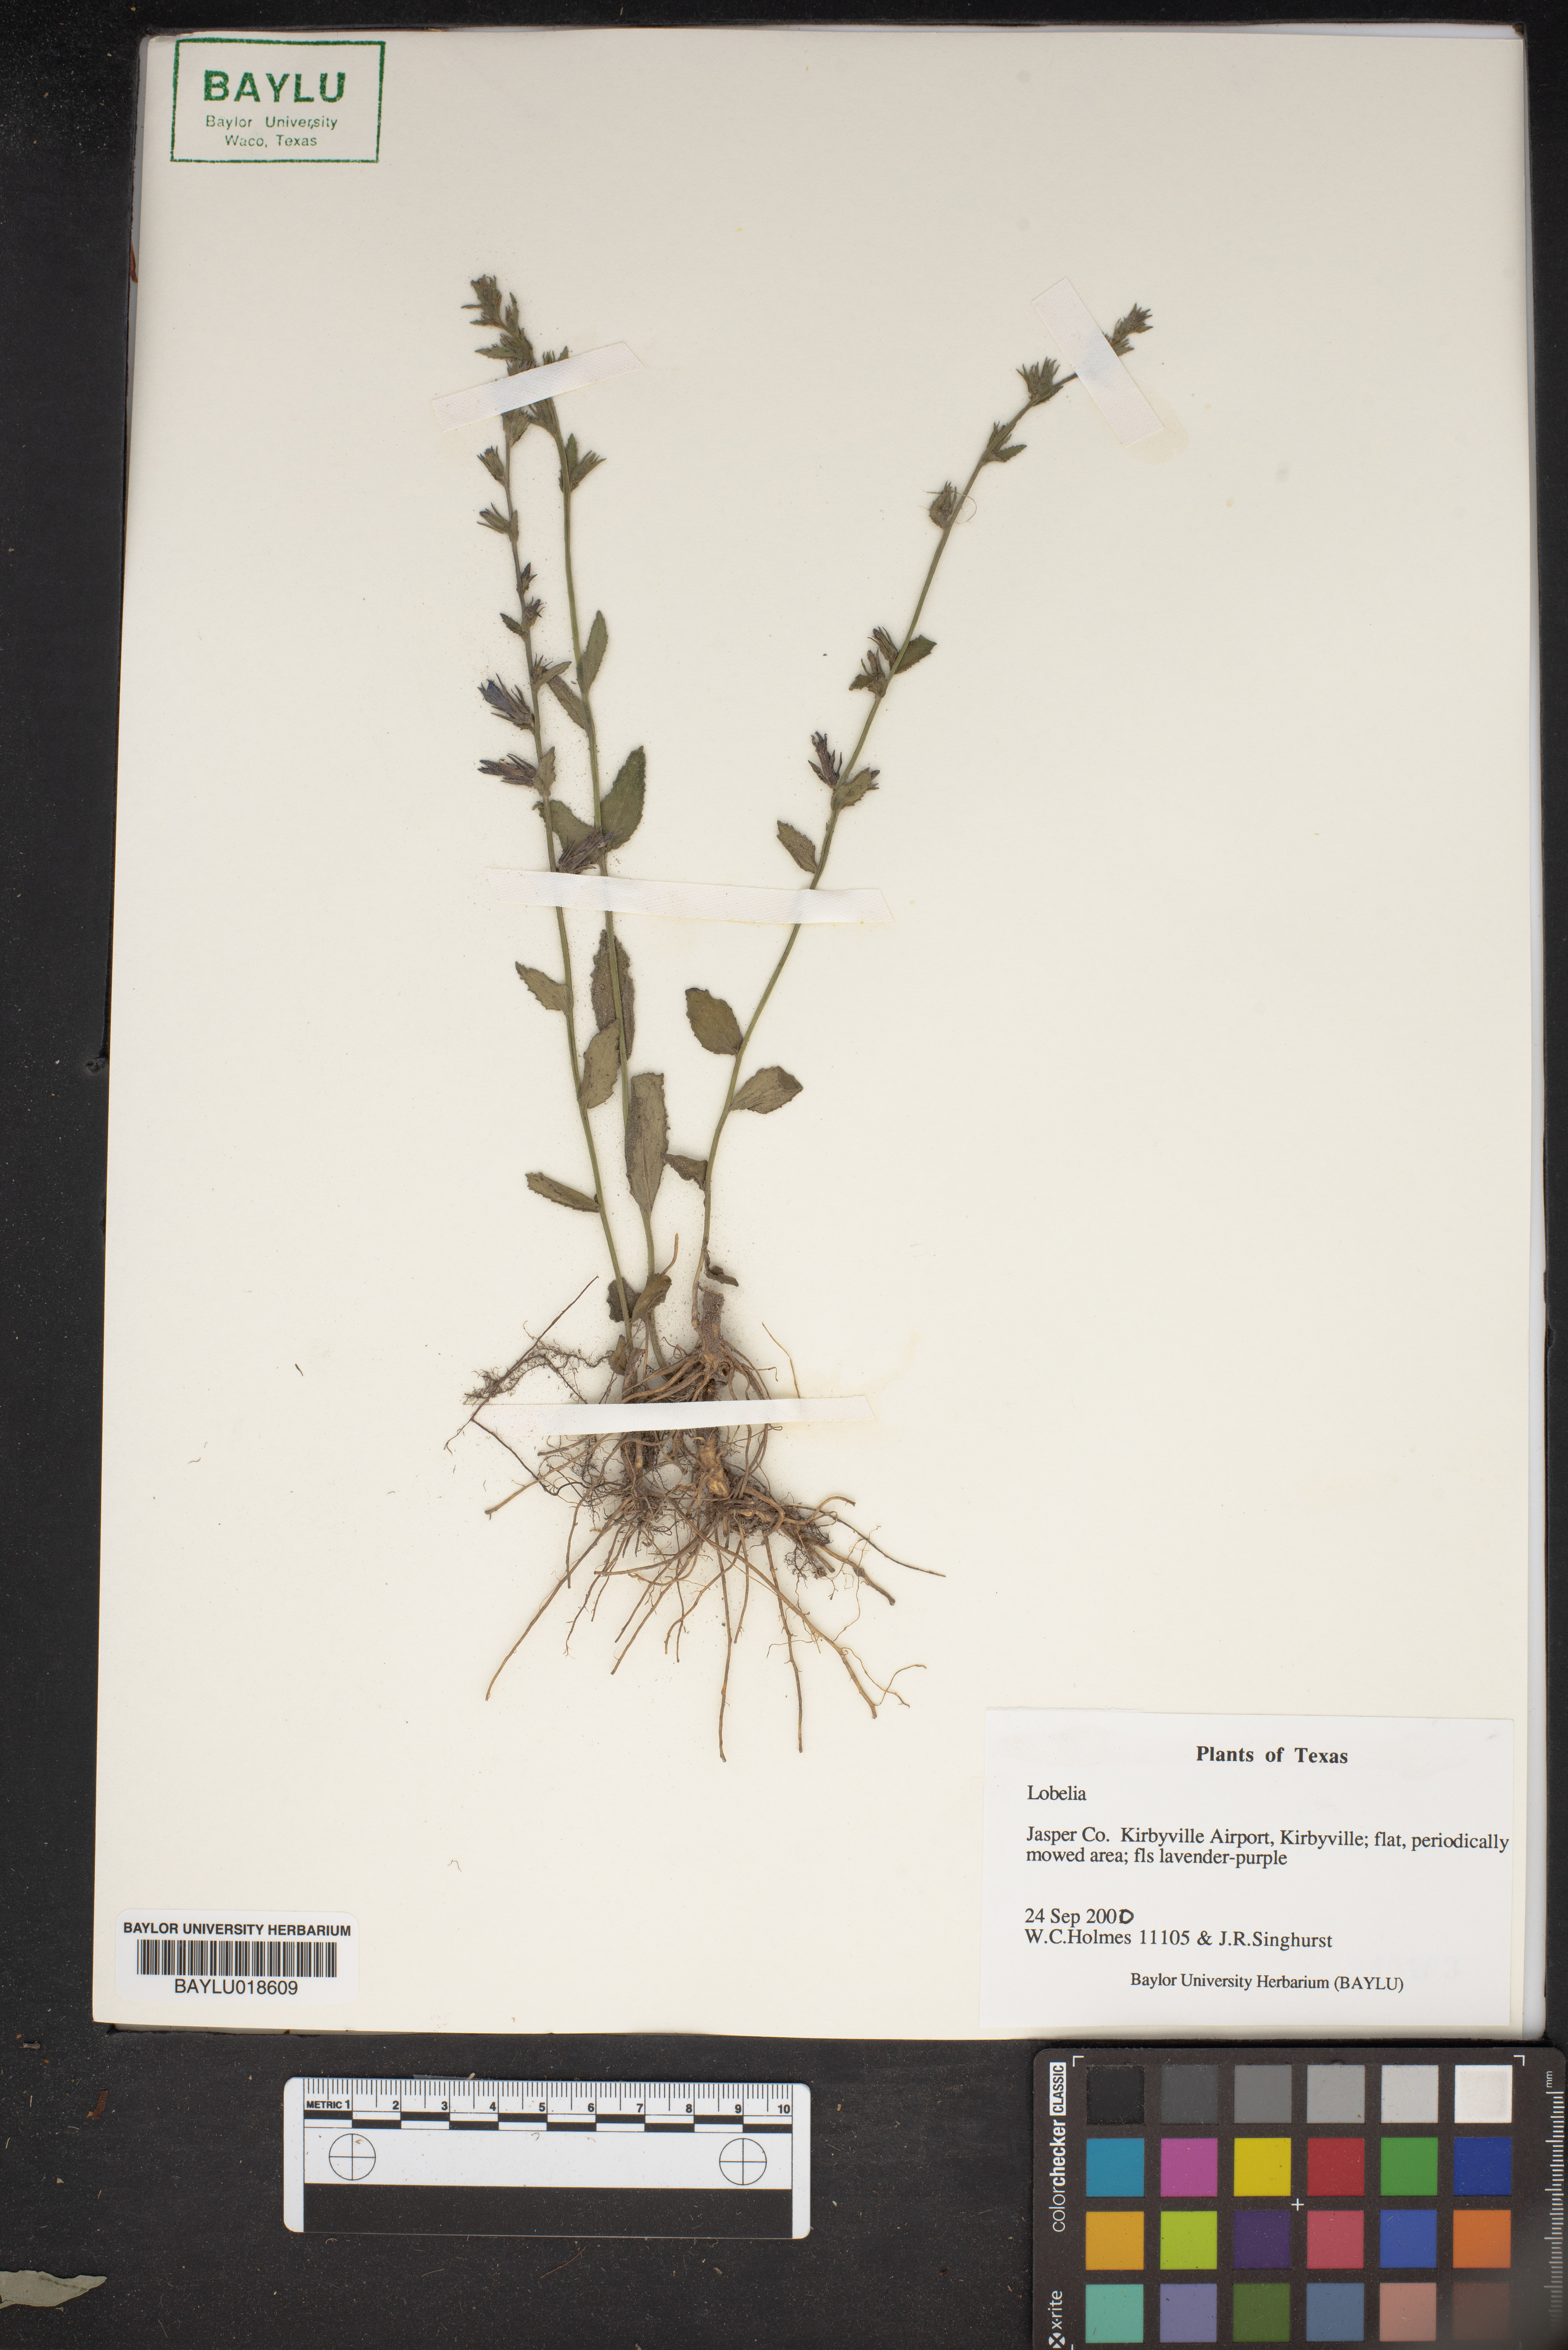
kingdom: Plantae
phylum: Tracheophyta
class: Magnoliopsida
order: Asterales
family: Campanulaceae
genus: Lobelia
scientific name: Lobelia
